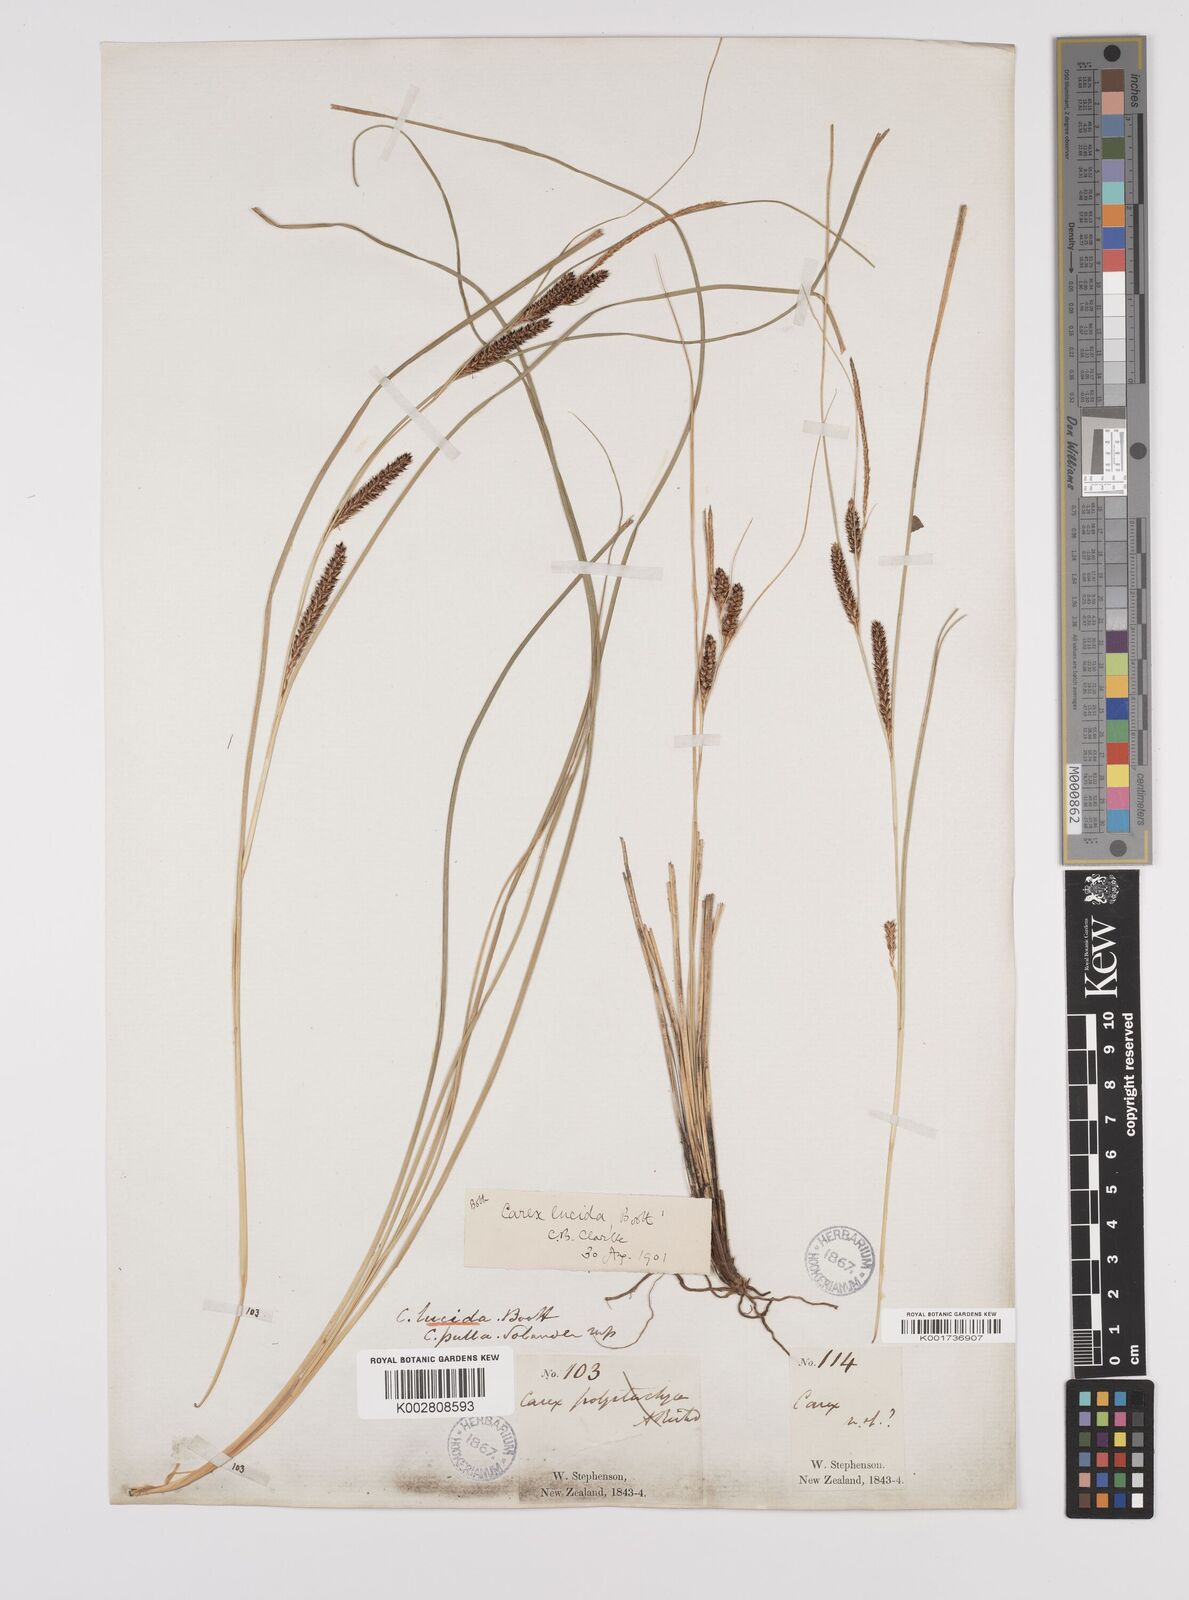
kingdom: Plantae
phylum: Tracheophyta
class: Liliopsida
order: Poales
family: Cyperaceae
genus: Carex
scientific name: Carex flagellifera
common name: Glen murray tussock
